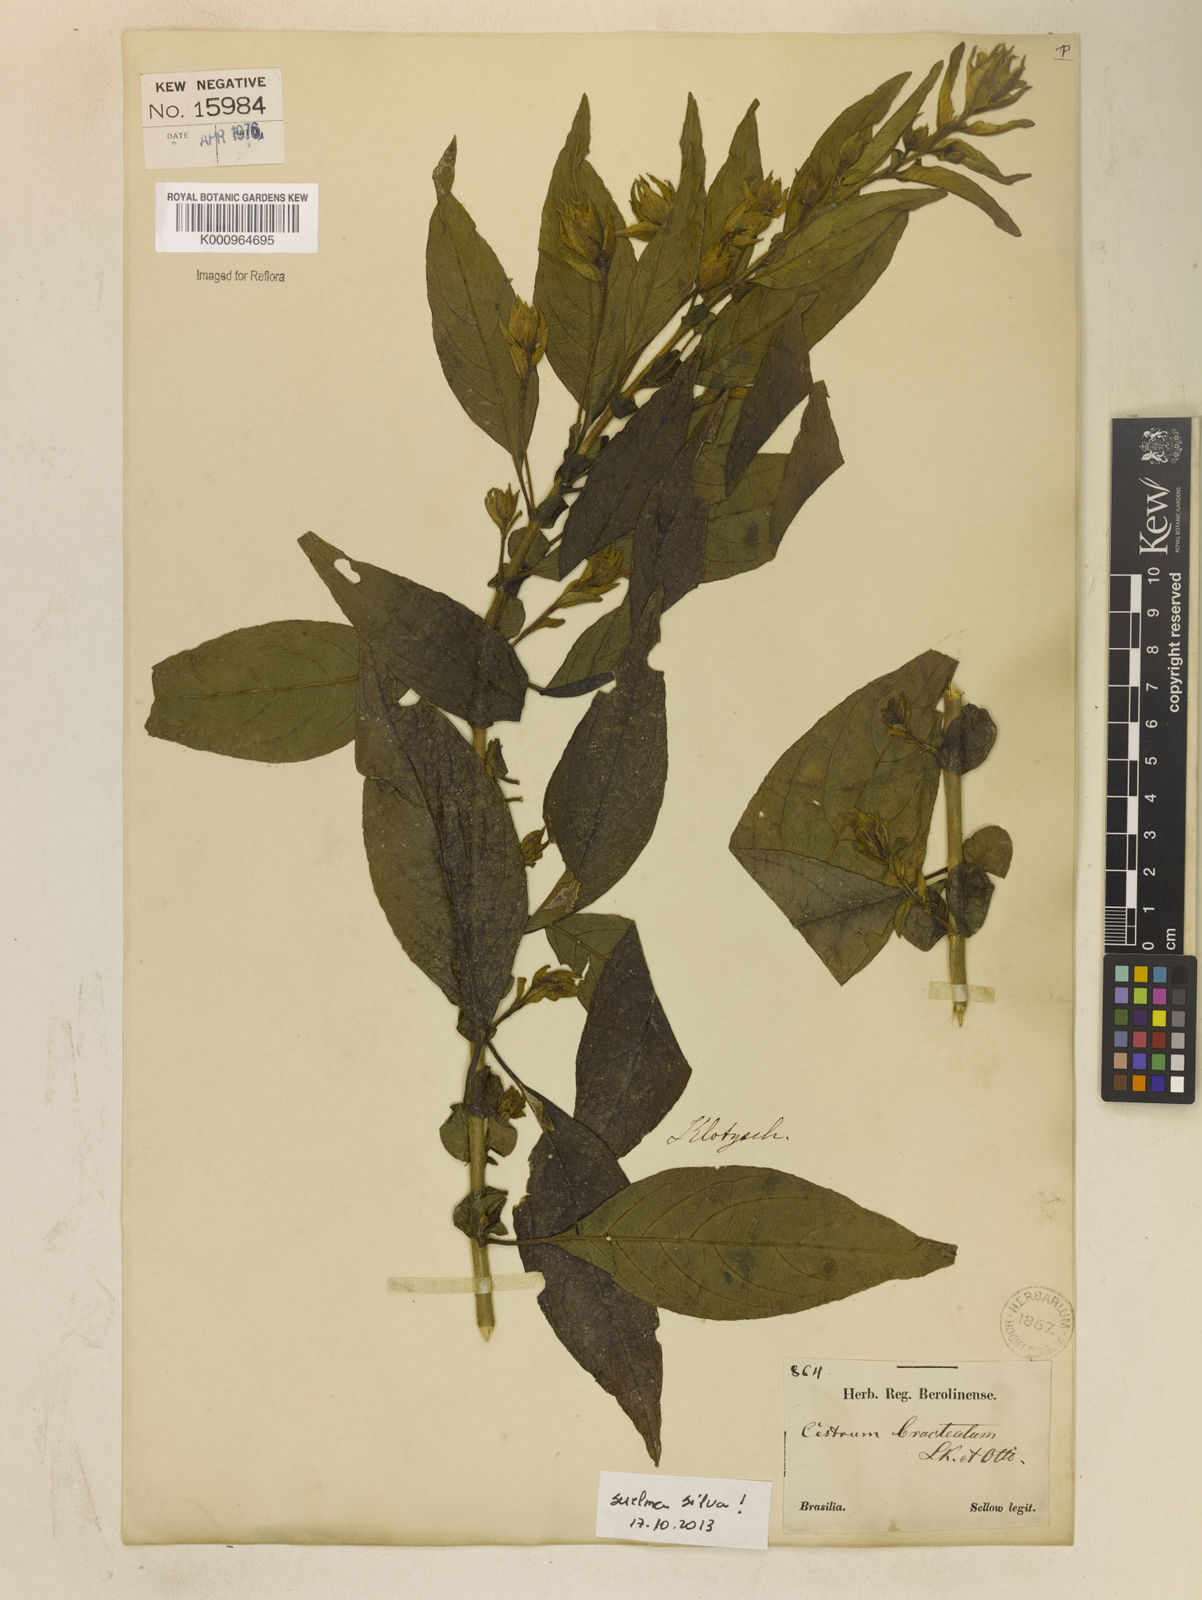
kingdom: Plantae
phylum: Tracheophyta
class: Magnoliopsida
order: Solanales
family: Solanaceae
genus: Cestrum
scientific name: Cestrum bracteatum
